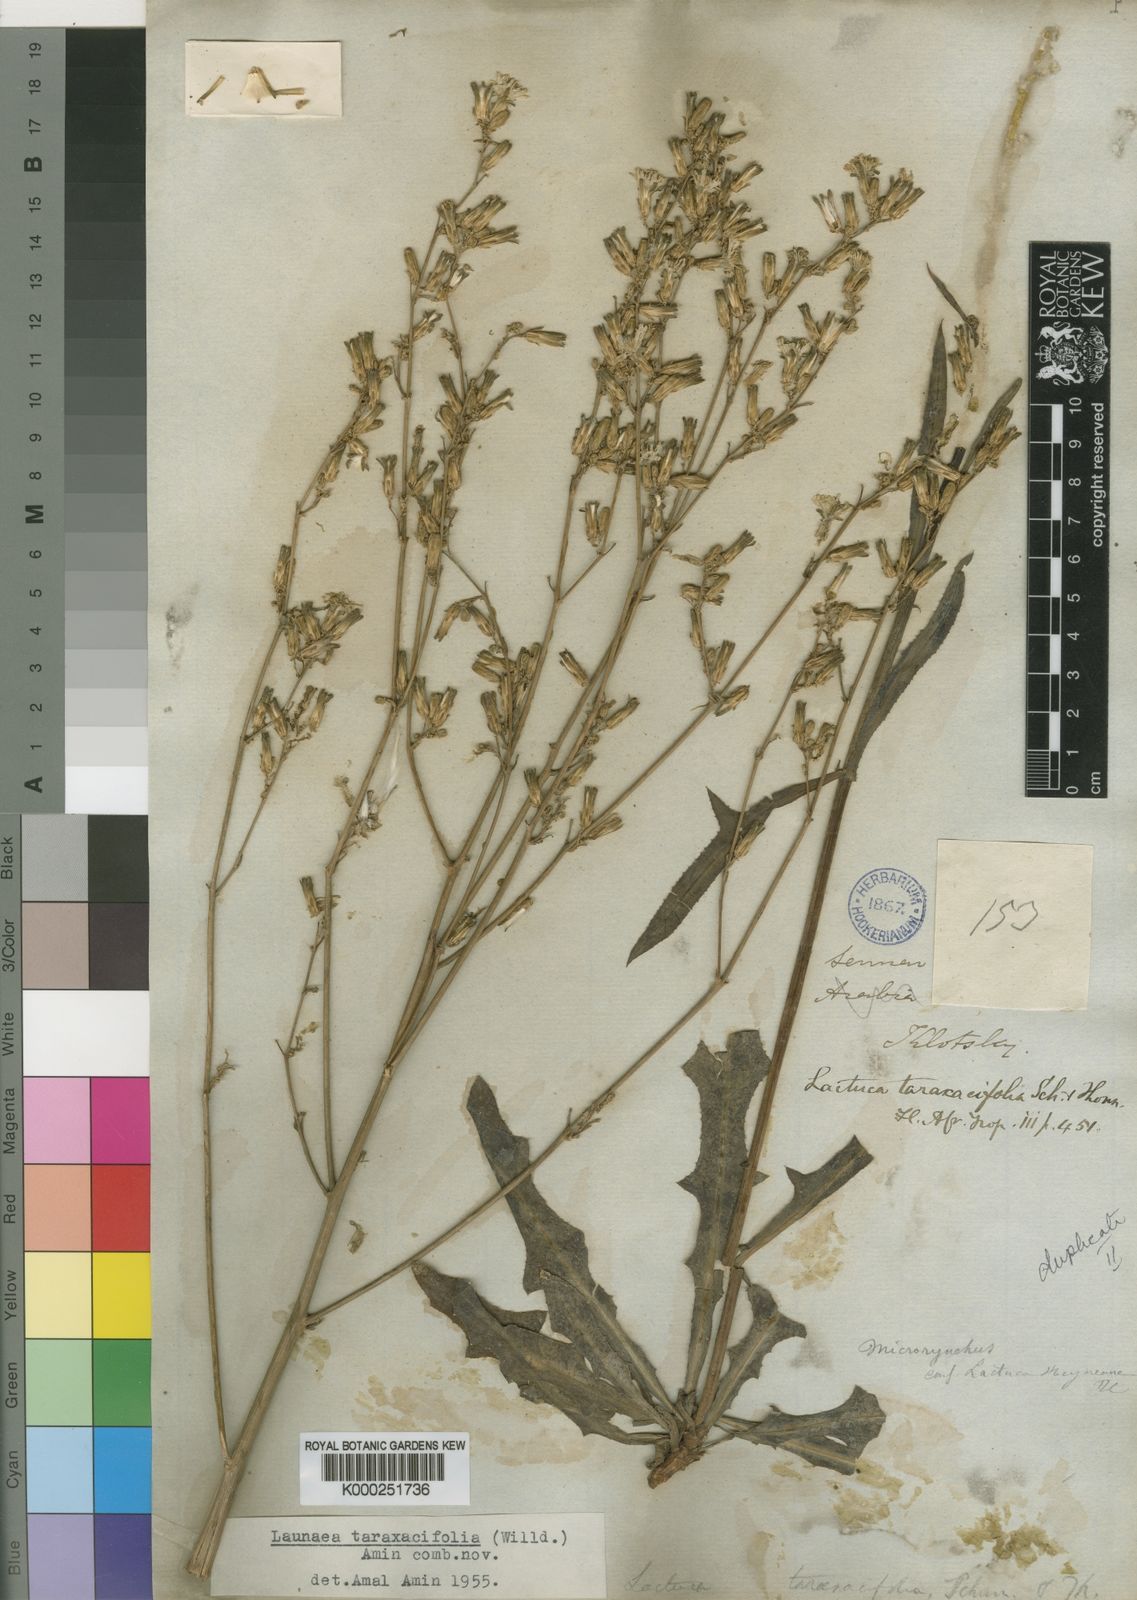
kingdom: Plantae
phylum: Tracheophyta
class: Magnoliopsida
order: Asterales
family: Asteraceae
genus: Launaea
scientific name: Launaea taraxacifolia
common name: African-lettuce
